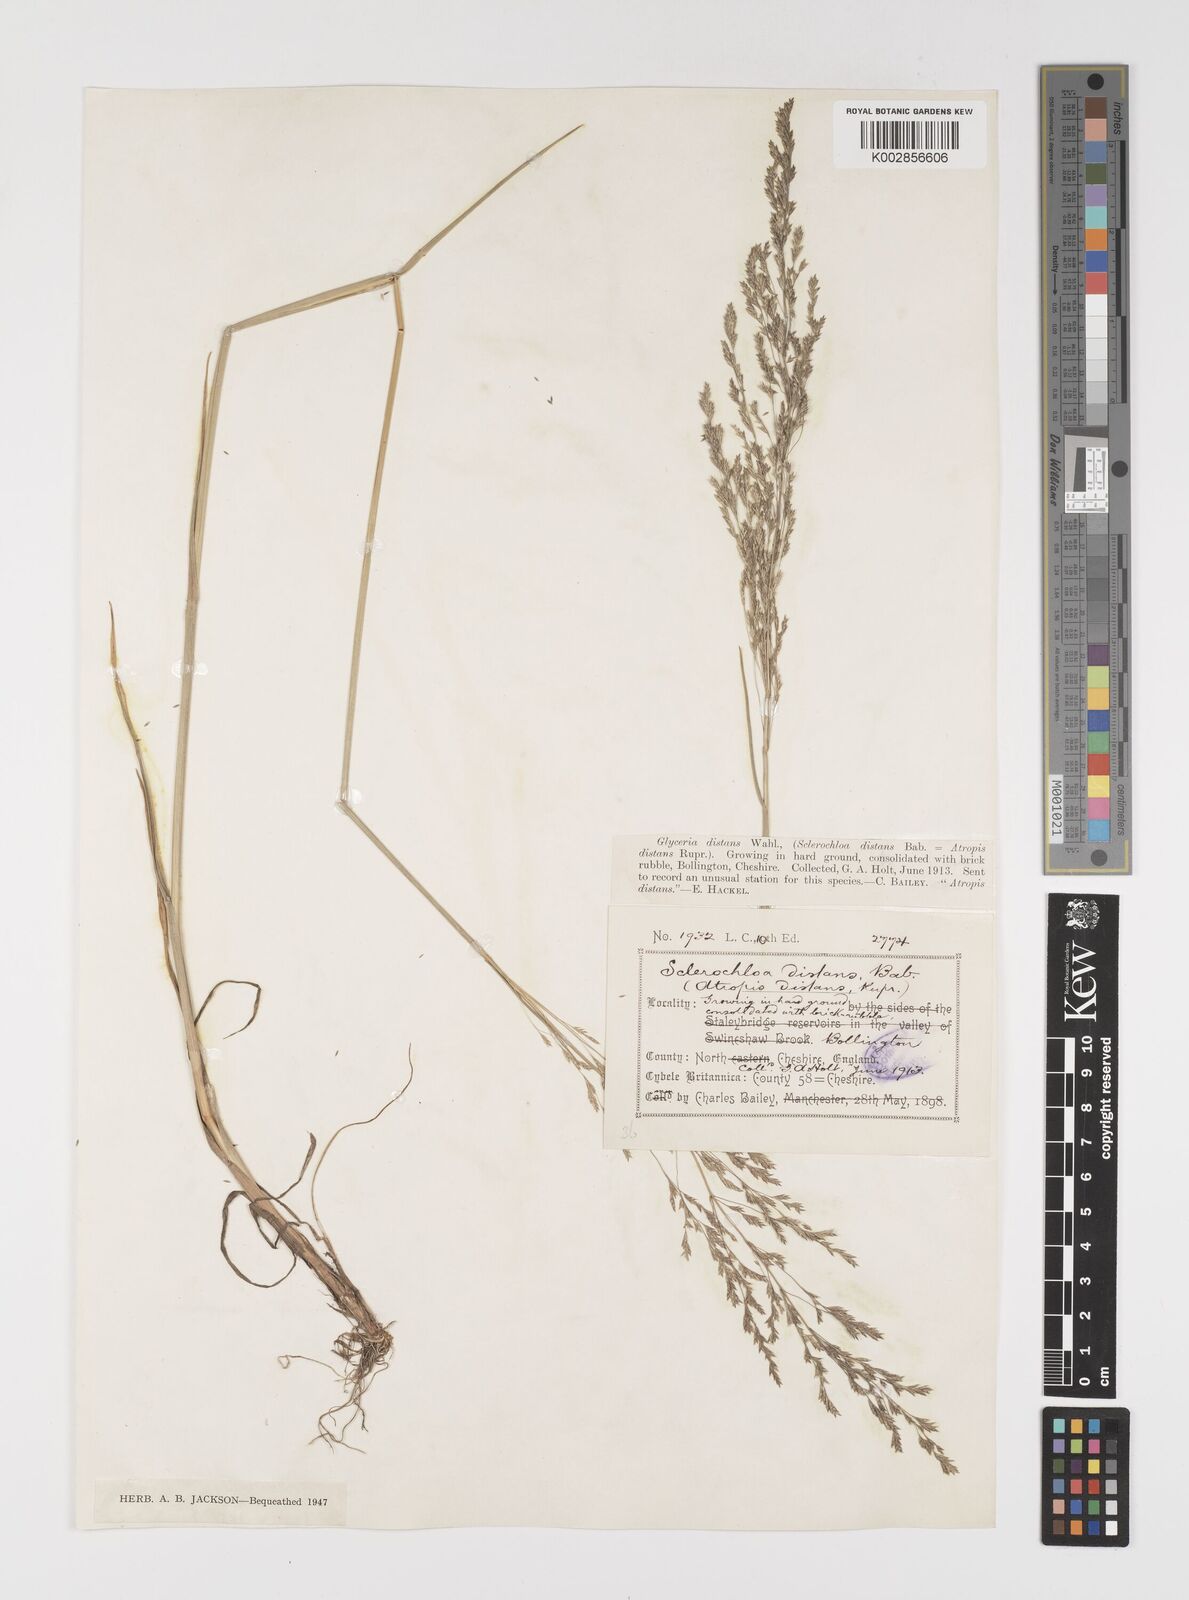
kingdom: Plantae
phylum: Tracheophyta
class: Liliopsida
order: Poales
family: Poaceae
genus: Puccinellia
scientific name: Puccinellia distans
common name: Weeping alkaligrass
